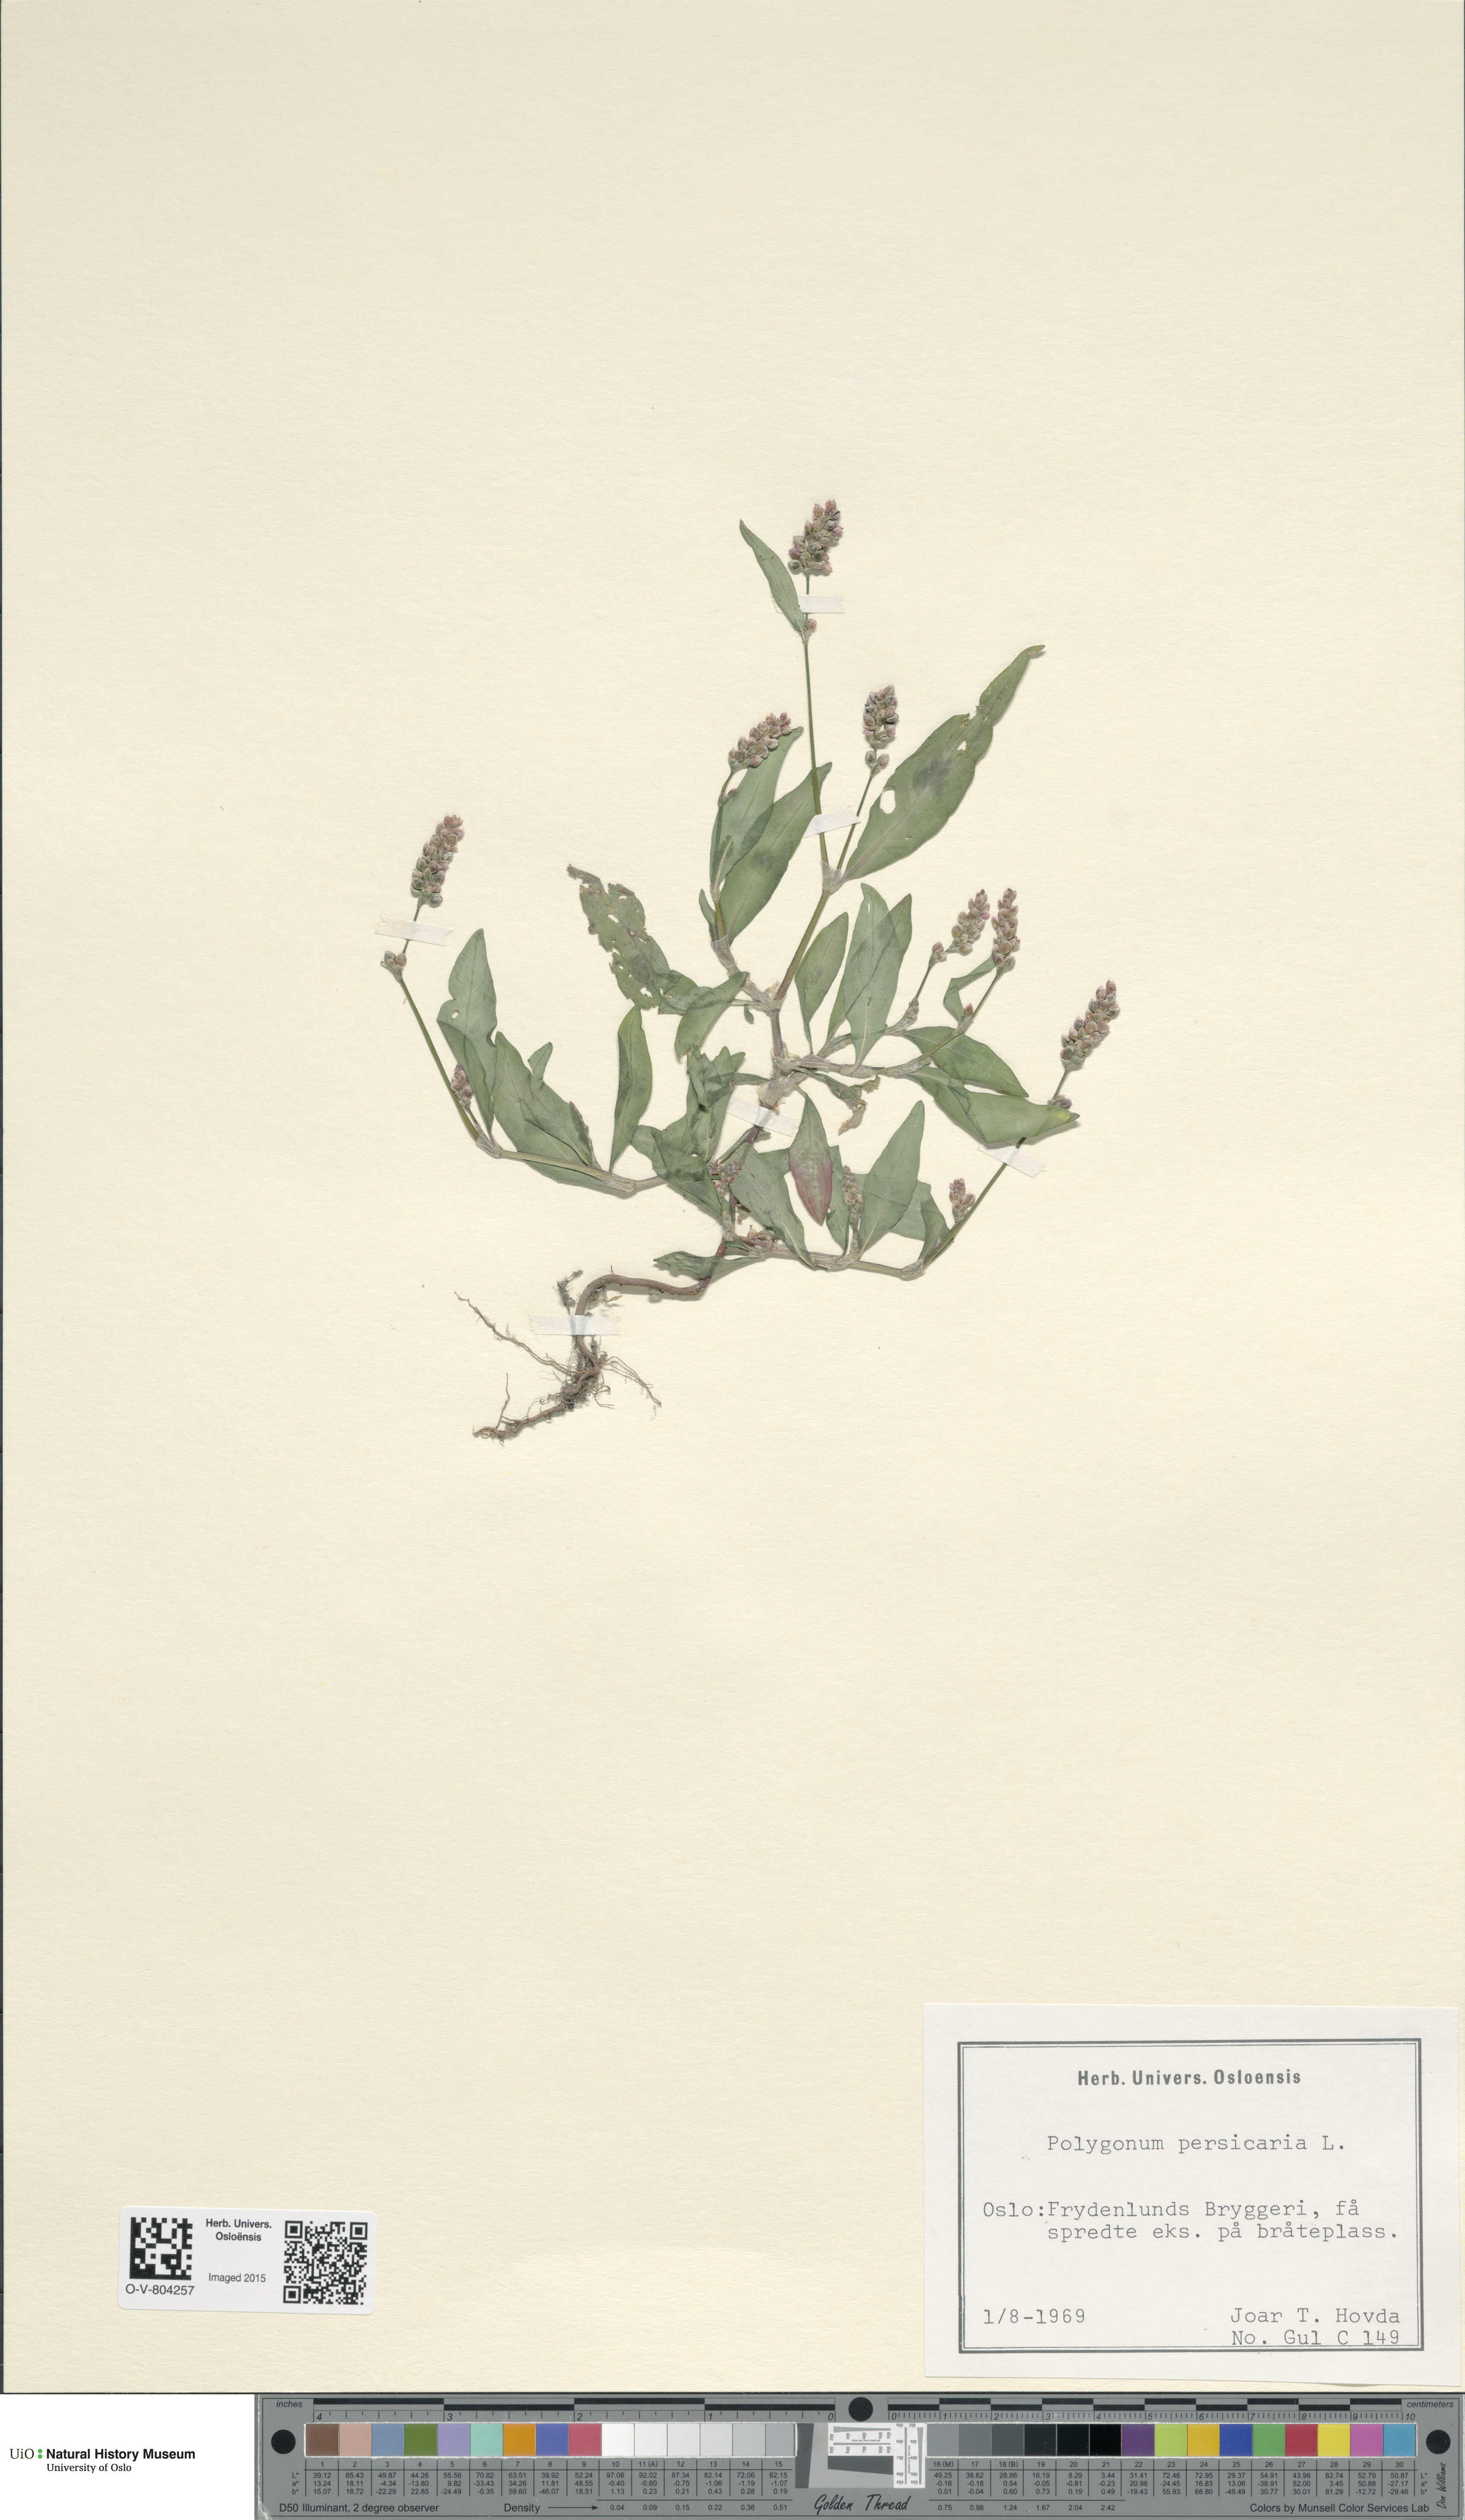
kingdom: Plantae
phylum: Tracheophyta
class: Magnoliopsida
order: Caryophyllales
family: Polygonaceae
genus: Persicaria
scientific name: Persicaria maculosa
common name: Redshank
